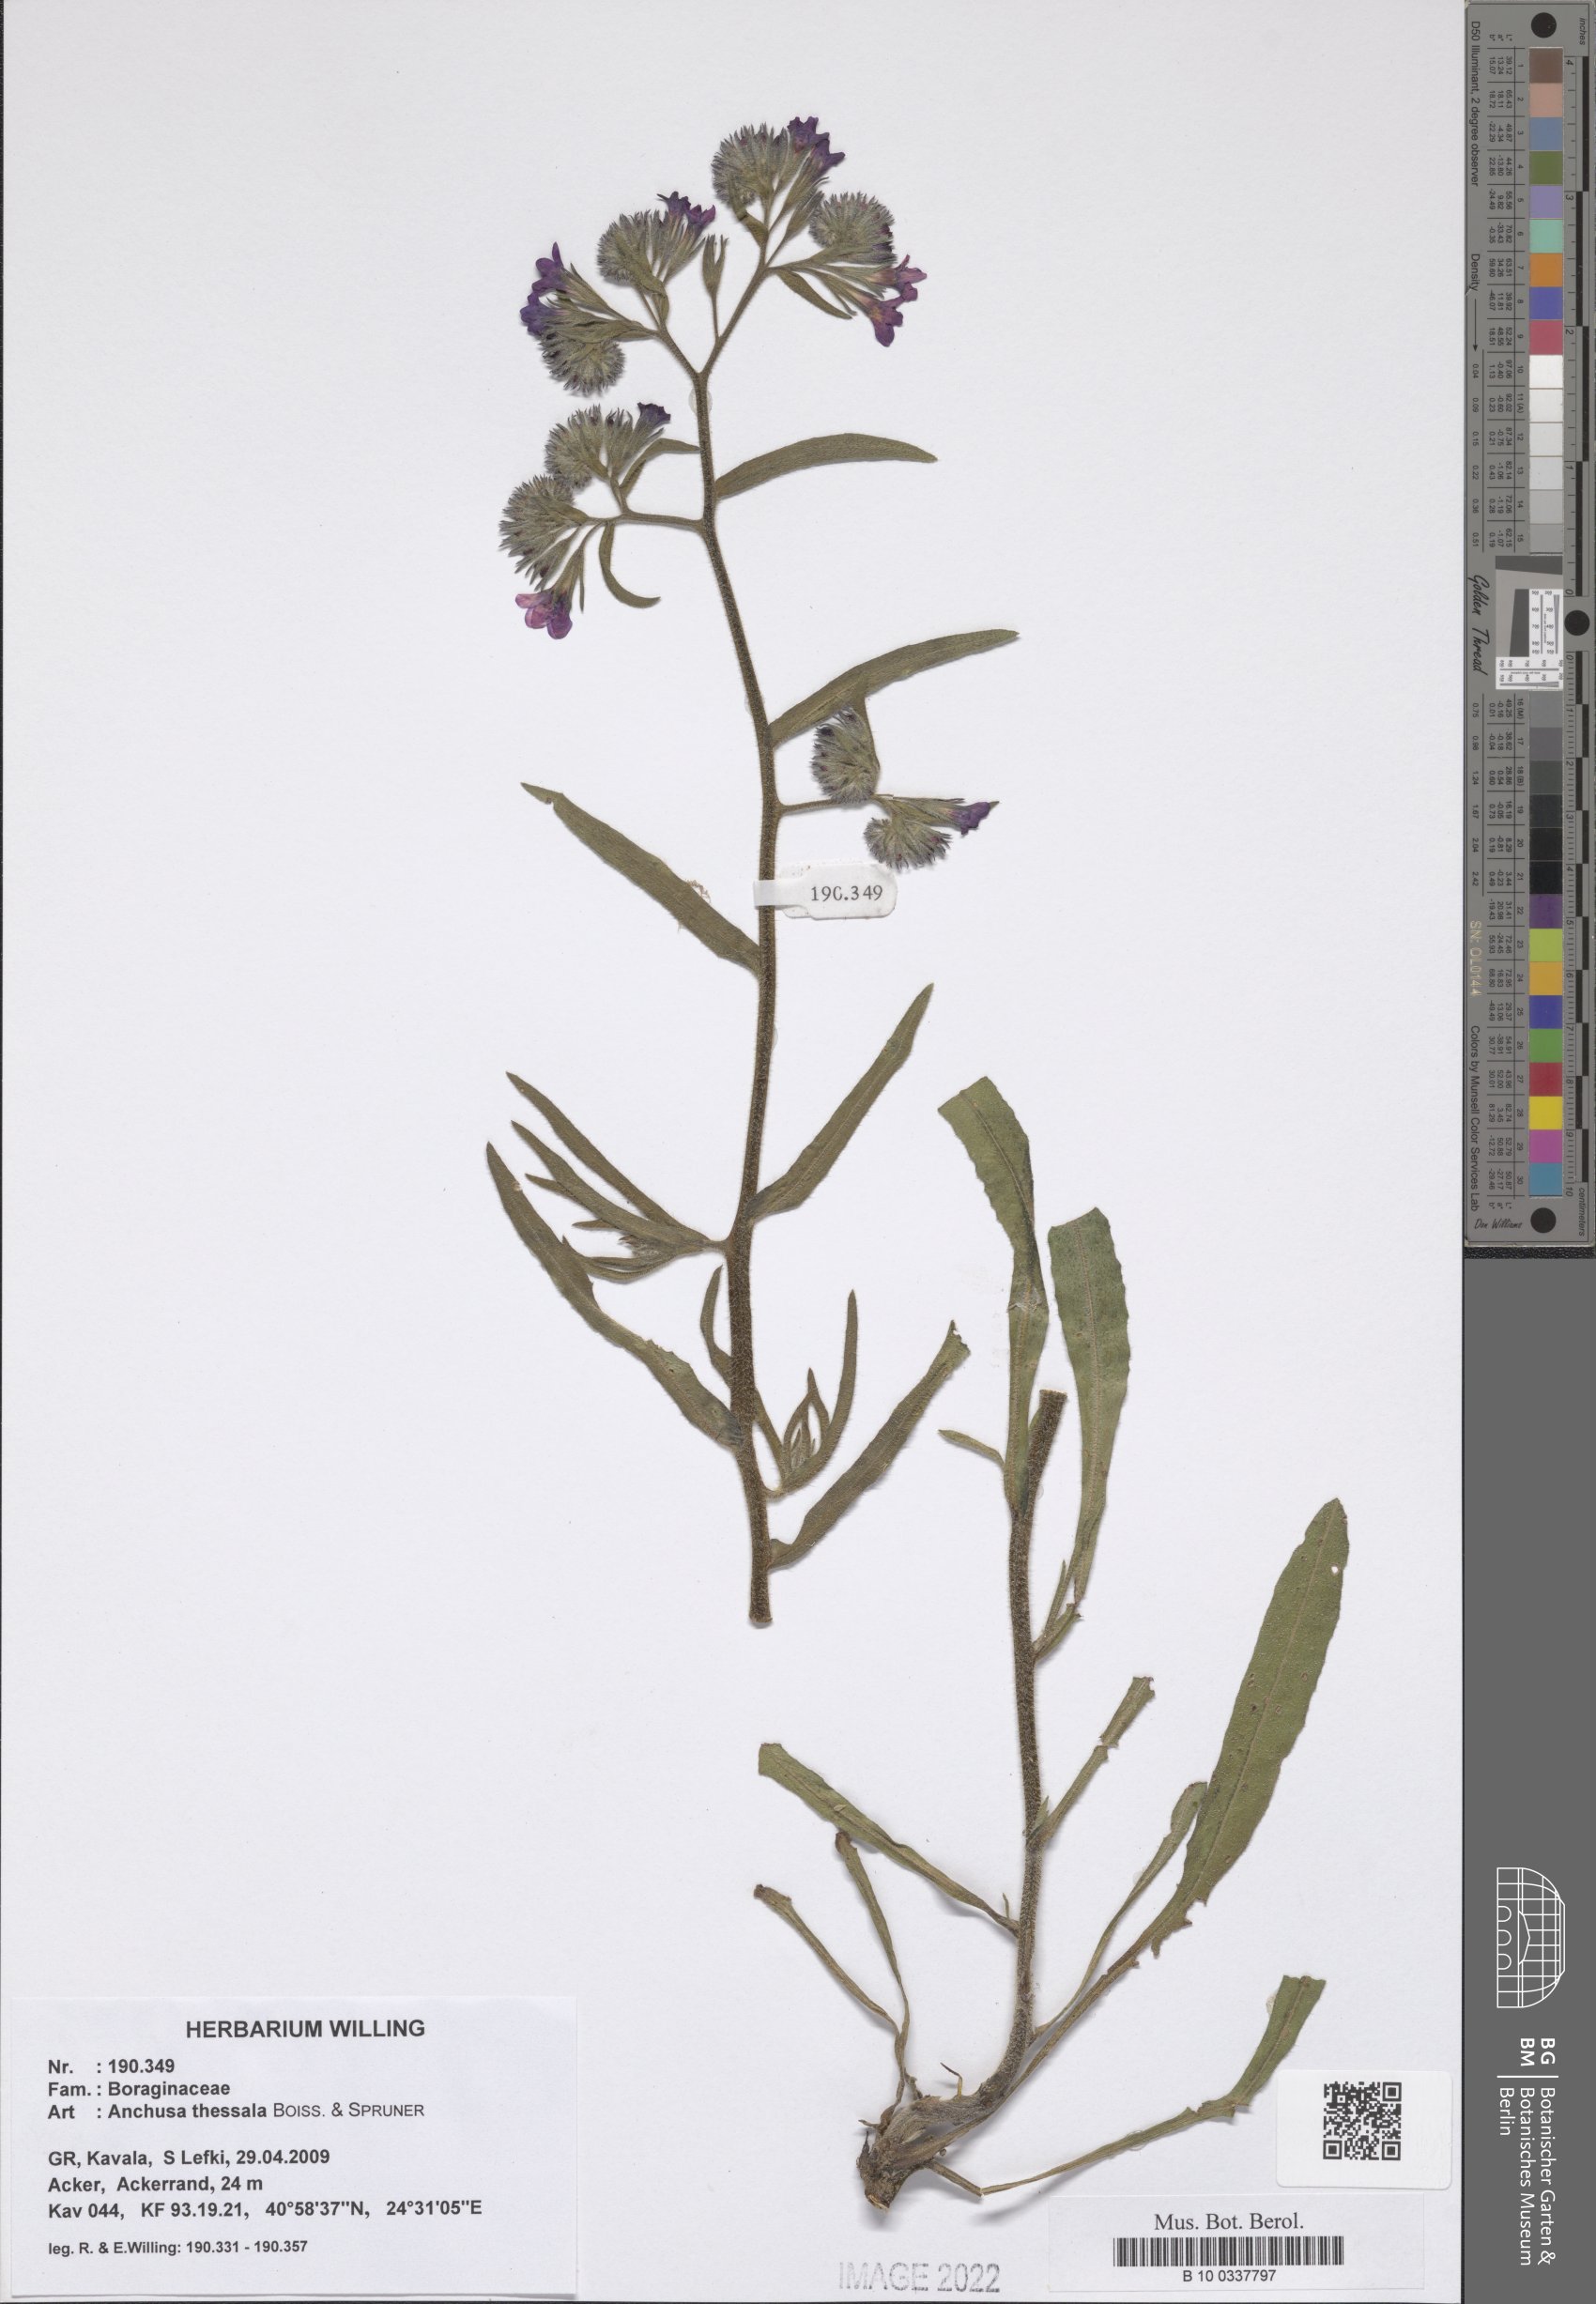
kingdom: Plantae
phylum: Tracheophyta
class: Magnoliopsida
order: Boraginales
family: Boraginaceae
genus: Anchusa
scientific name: Anchusa thessala
